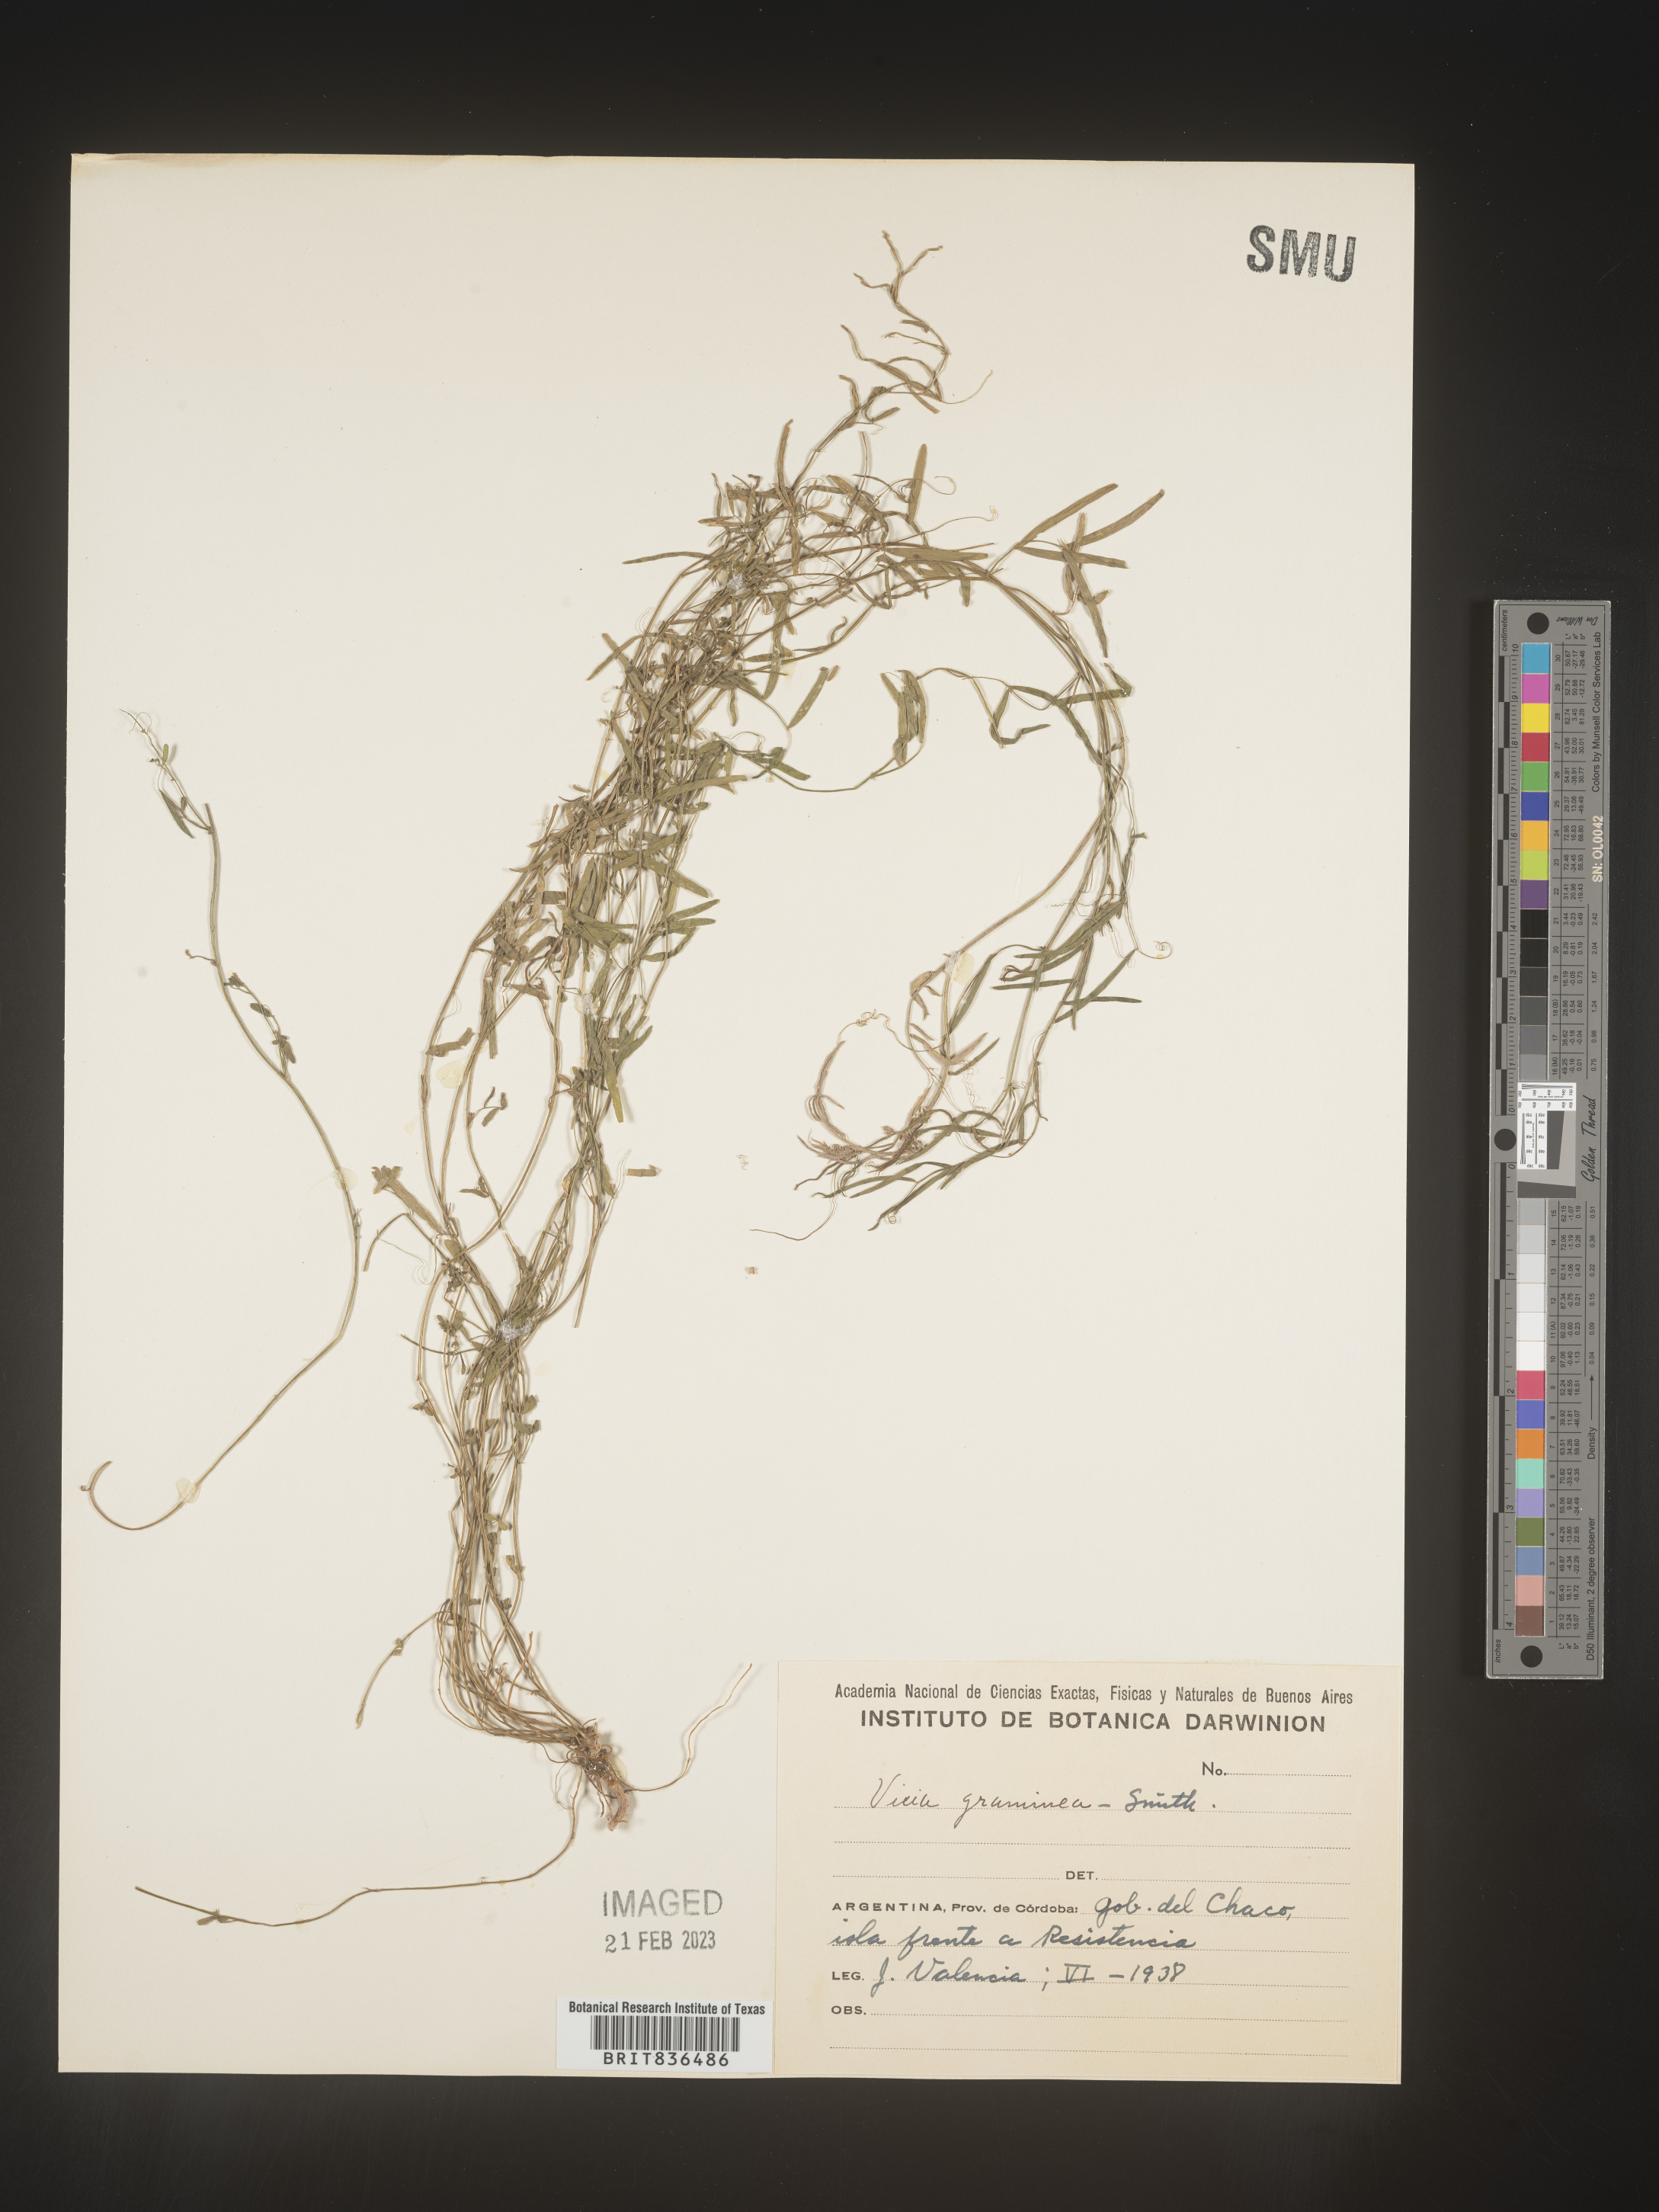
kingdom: Plantae
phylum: Tracheophyta
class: Magnoliopsida
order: Fabales
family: Fabaceae
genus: Vicia
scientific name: Vicia
